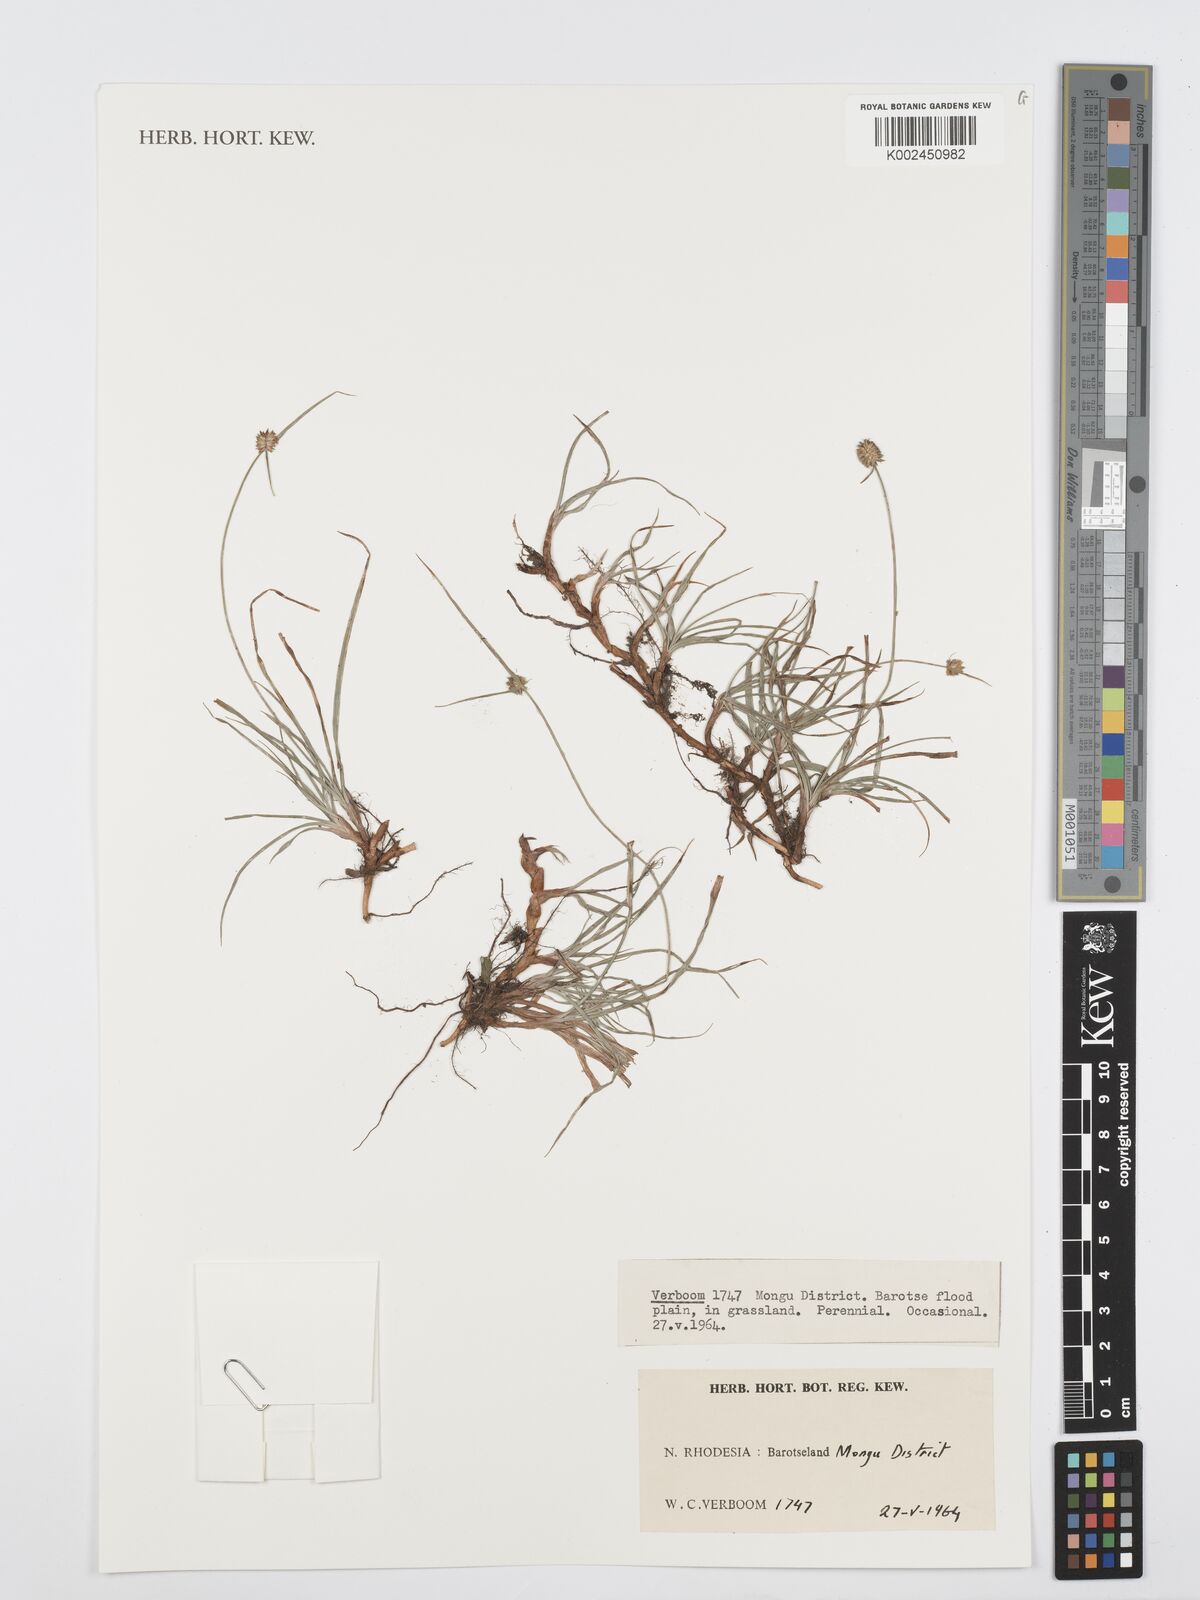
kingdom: Plantae
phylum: Tracheophyta
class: Liliopsida
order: Poales
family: Cyperaceae
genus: Cyperus
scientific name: Cyperus
